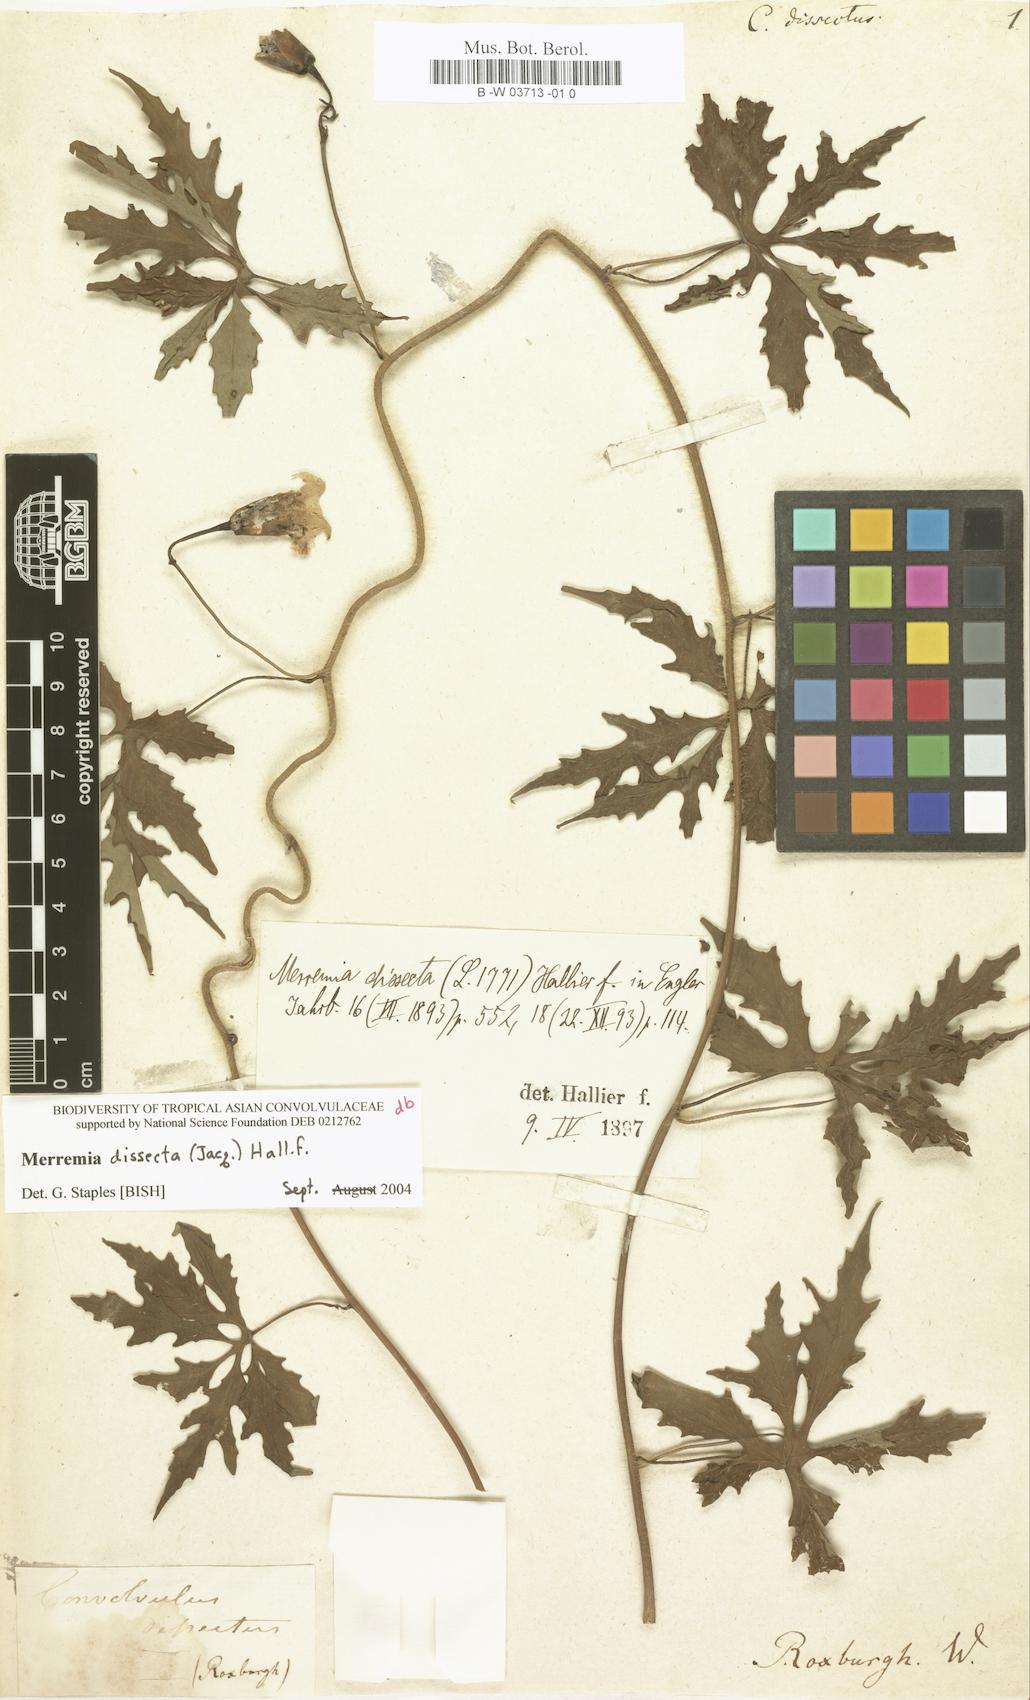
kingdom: Plantae
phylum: Tracheophyta
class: Magnoliopsida
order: Solanales
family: Convolvulaceae
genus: Convolvulus
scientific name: Convolvulus dissectus
